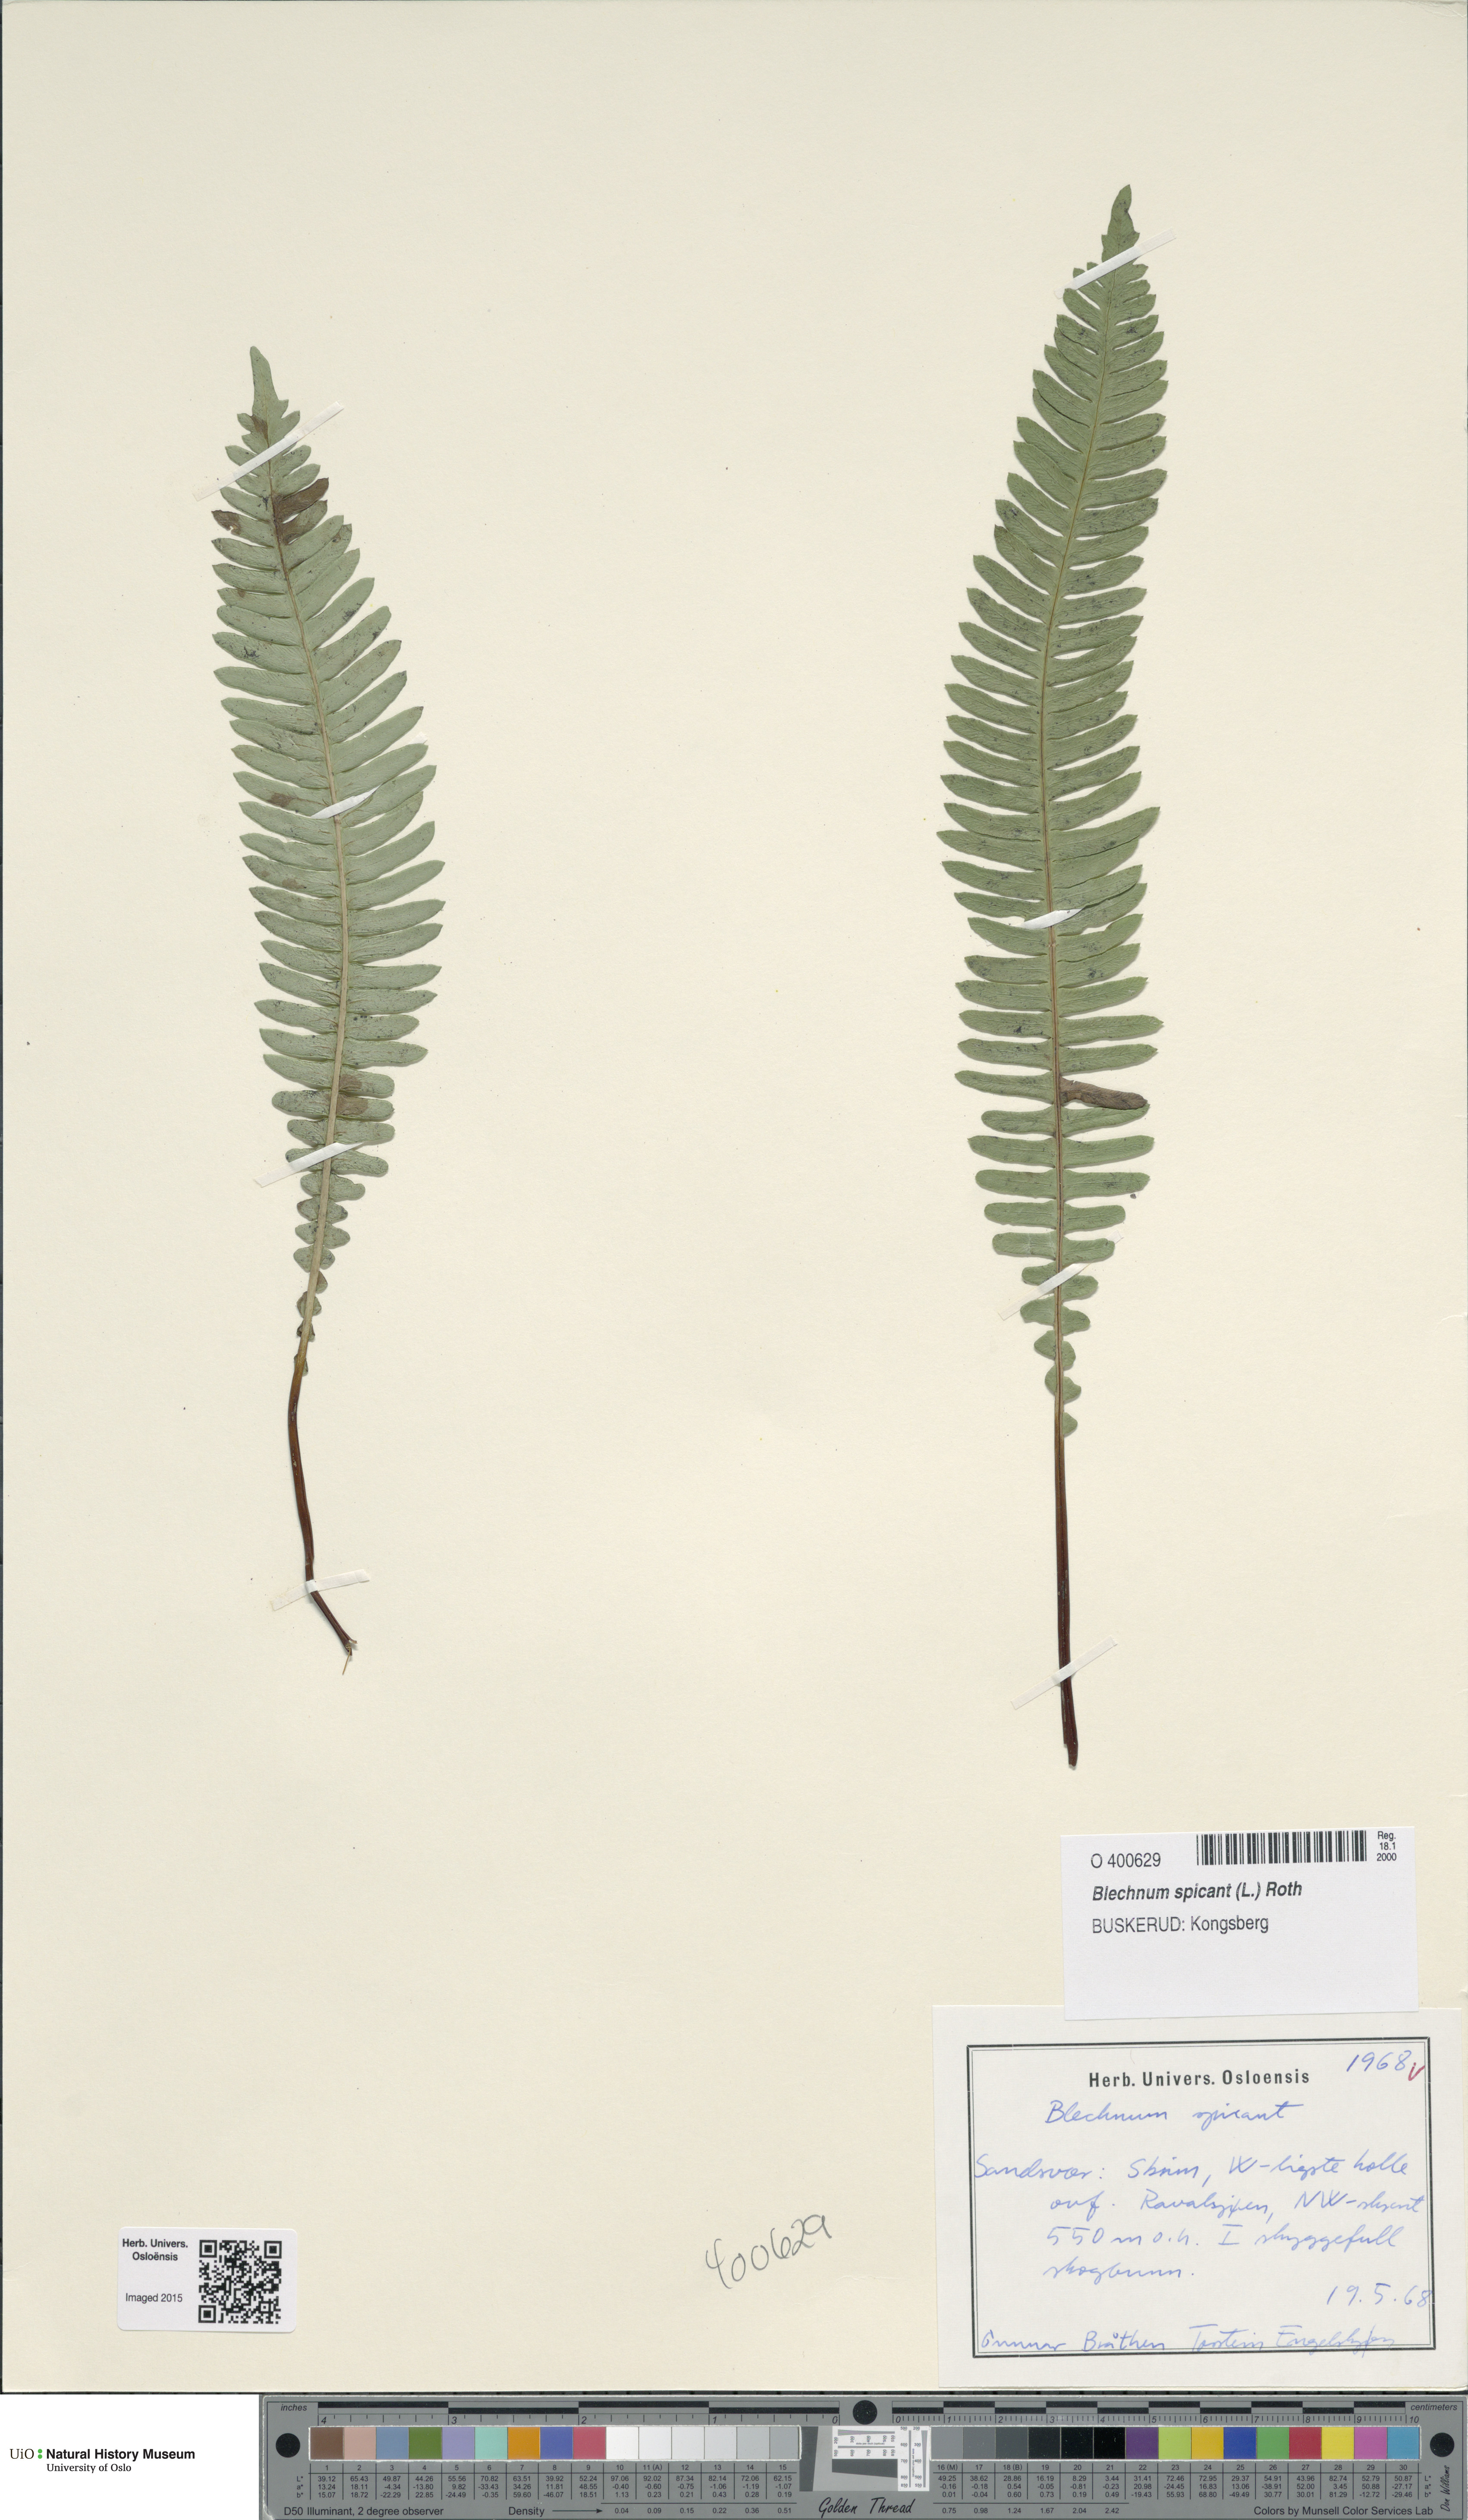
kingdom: Plantae
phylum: Tracheophyta
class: Polypodiopsida
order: Polypodiales
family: Blechnaceae
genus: Struthiopteris
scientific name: Struthiopteris spicant
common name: Deer fern
